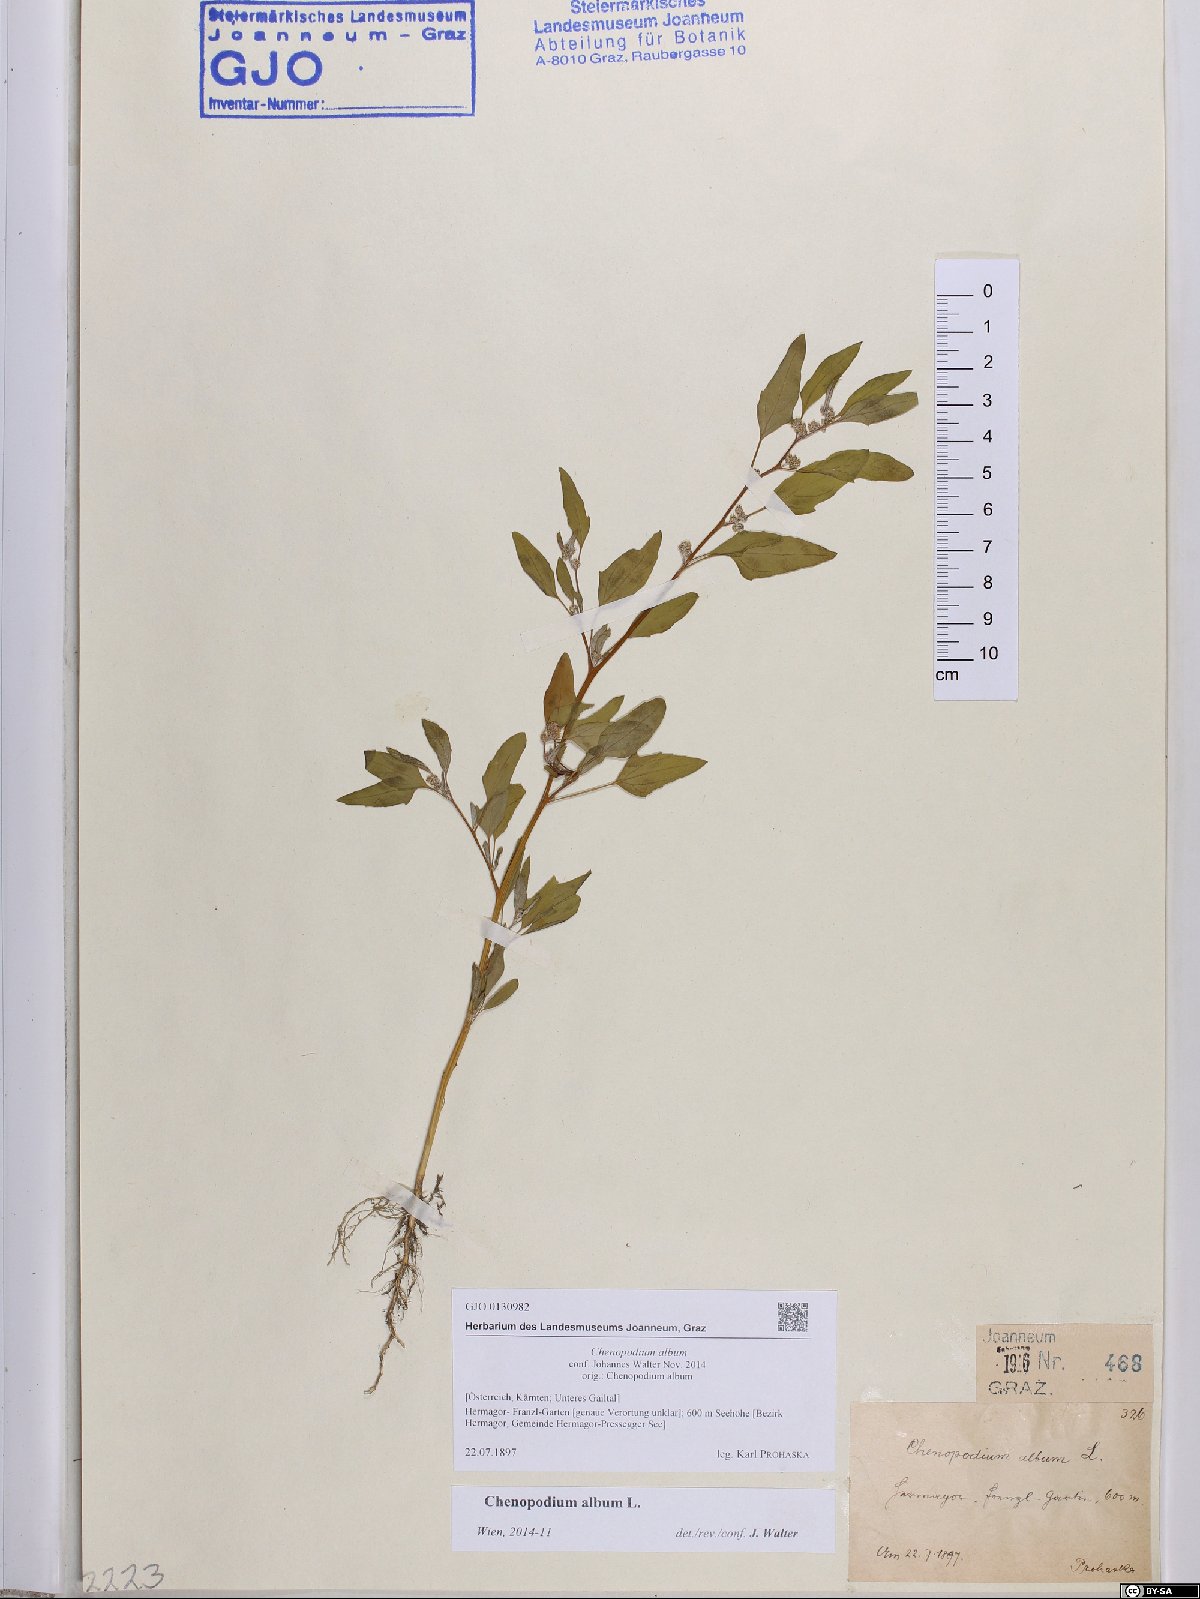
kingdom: Plantae
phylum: Tracheophyta
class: Magnoliopsida
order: Caryophyllales
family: Amaranthaceae
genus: Chenopodium
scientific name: Chenopodium album
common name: Fat-hen
